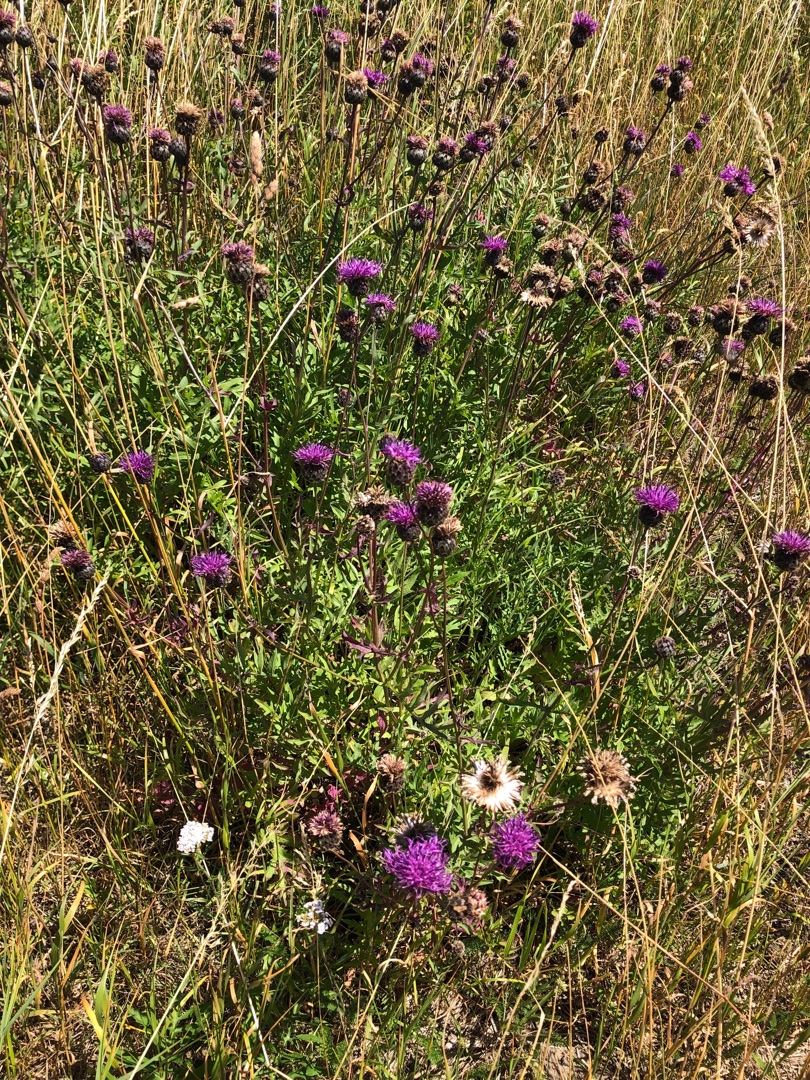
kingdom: Plantae
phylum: Tracheophyta
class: Magnoliopsida
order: Asterales
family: Asteraceae
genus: Centaurea
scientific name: Centaurea scabiosa
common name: Stor knopurt
